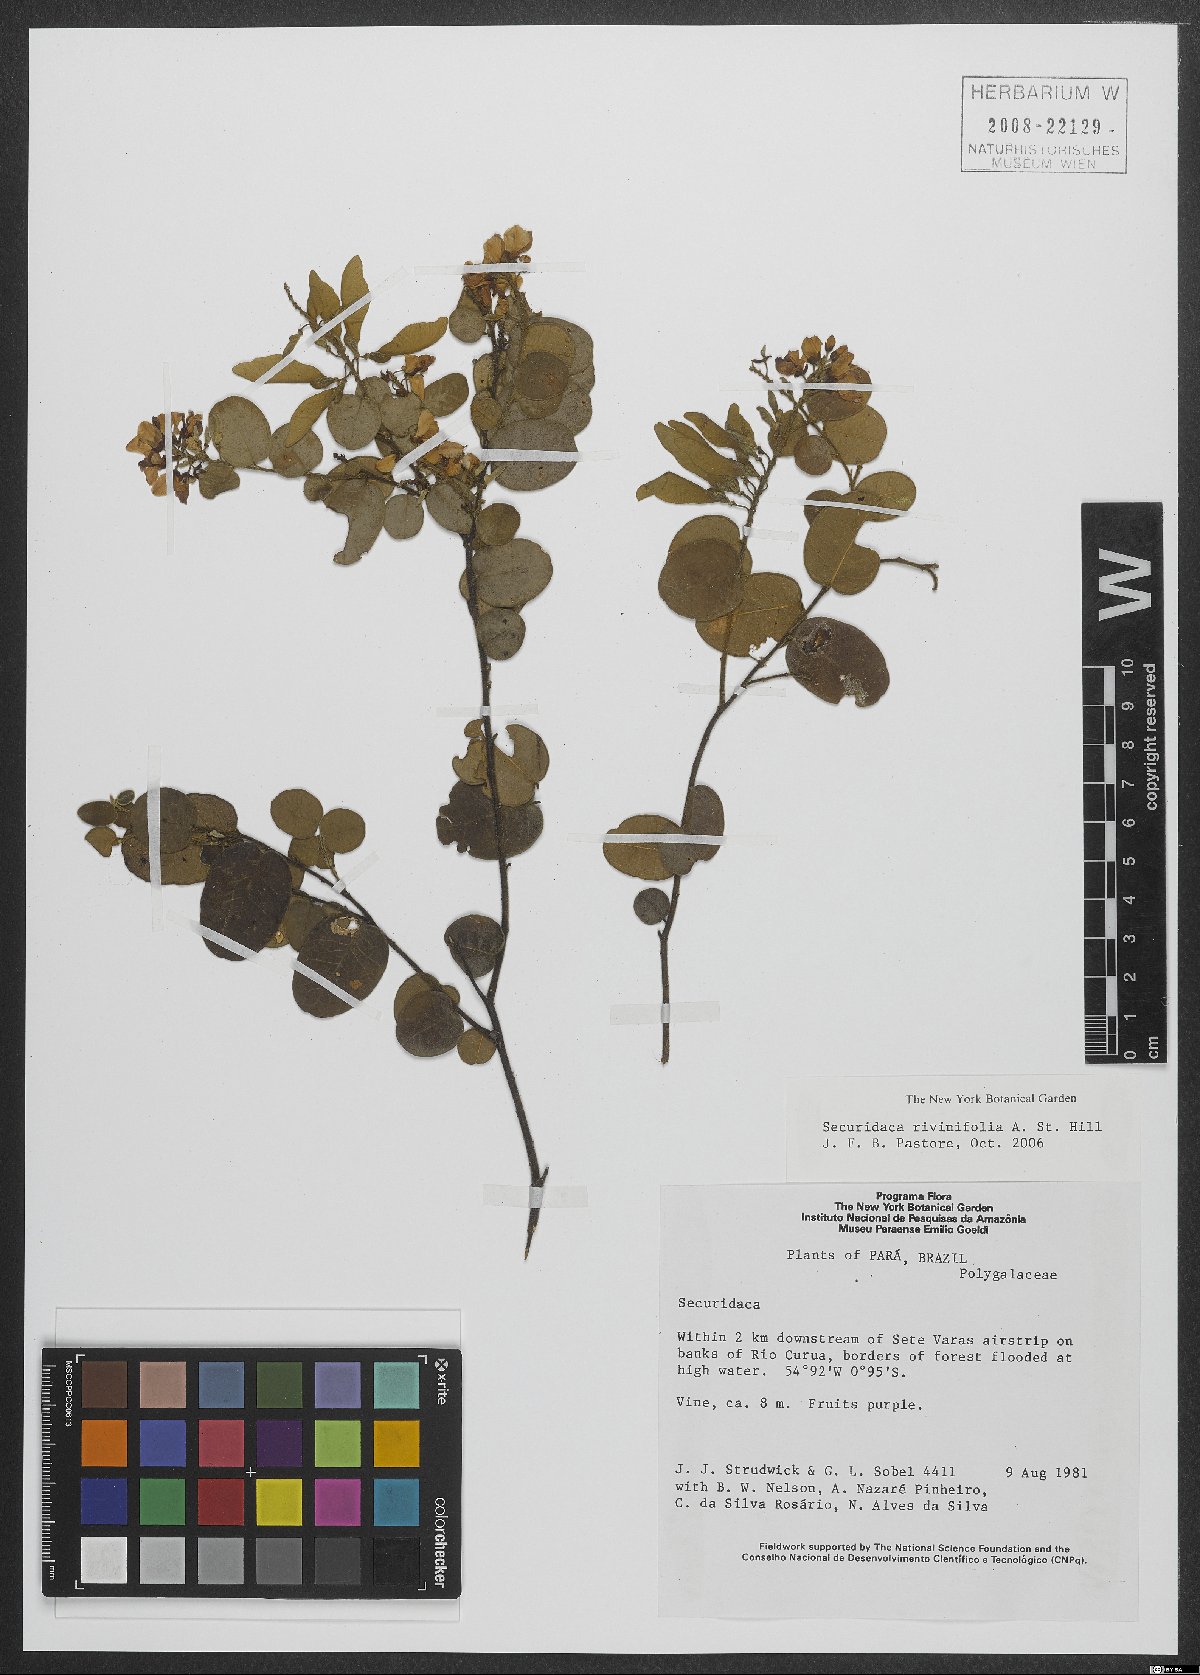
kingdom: Plantae
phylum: Tracheophyta
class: Magnoliopsida
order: Fabales
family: Polygalaceae
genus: Securidaca
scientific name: Securidaca rivinifolia
